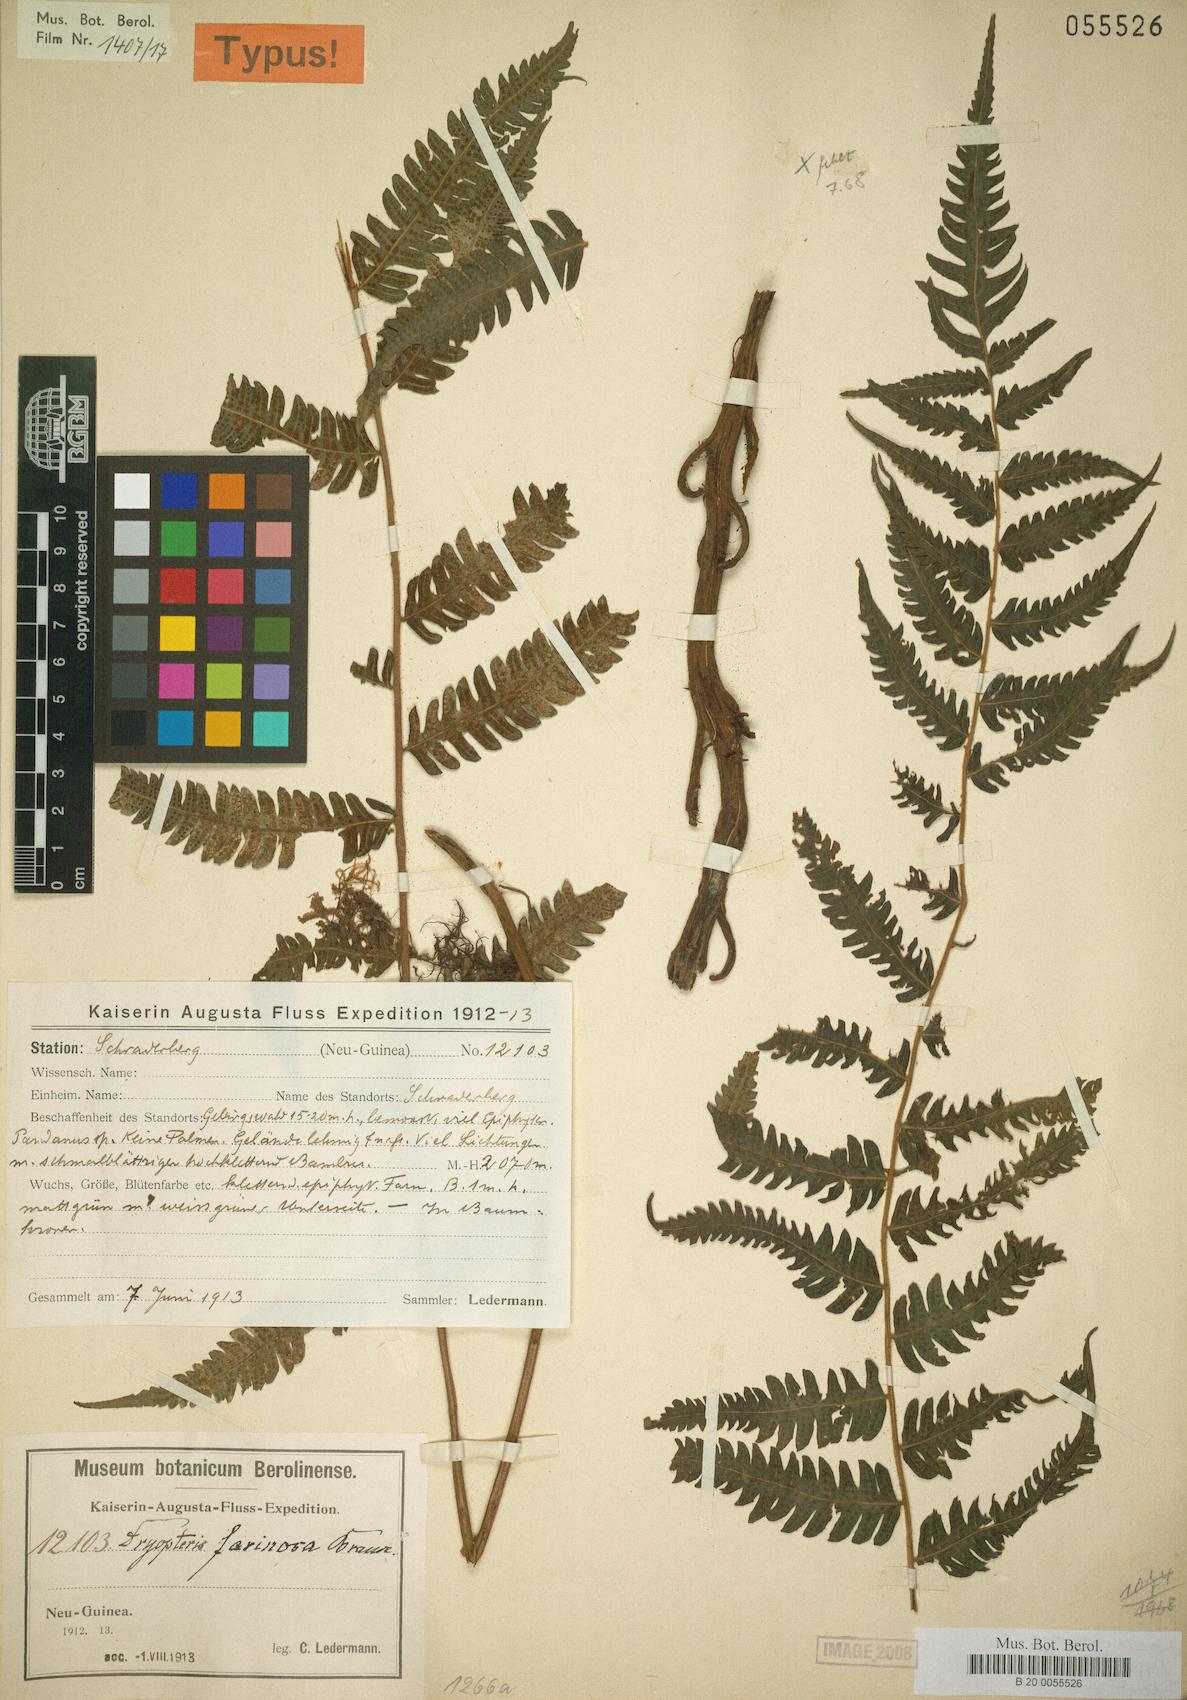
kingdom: Plantae
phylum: Tracheophyta
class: Polypodiopsida
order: Polypodiales
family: Thelypteridaceae
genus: Sphaerostephanos
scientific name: Sphaerostephanos mundus
